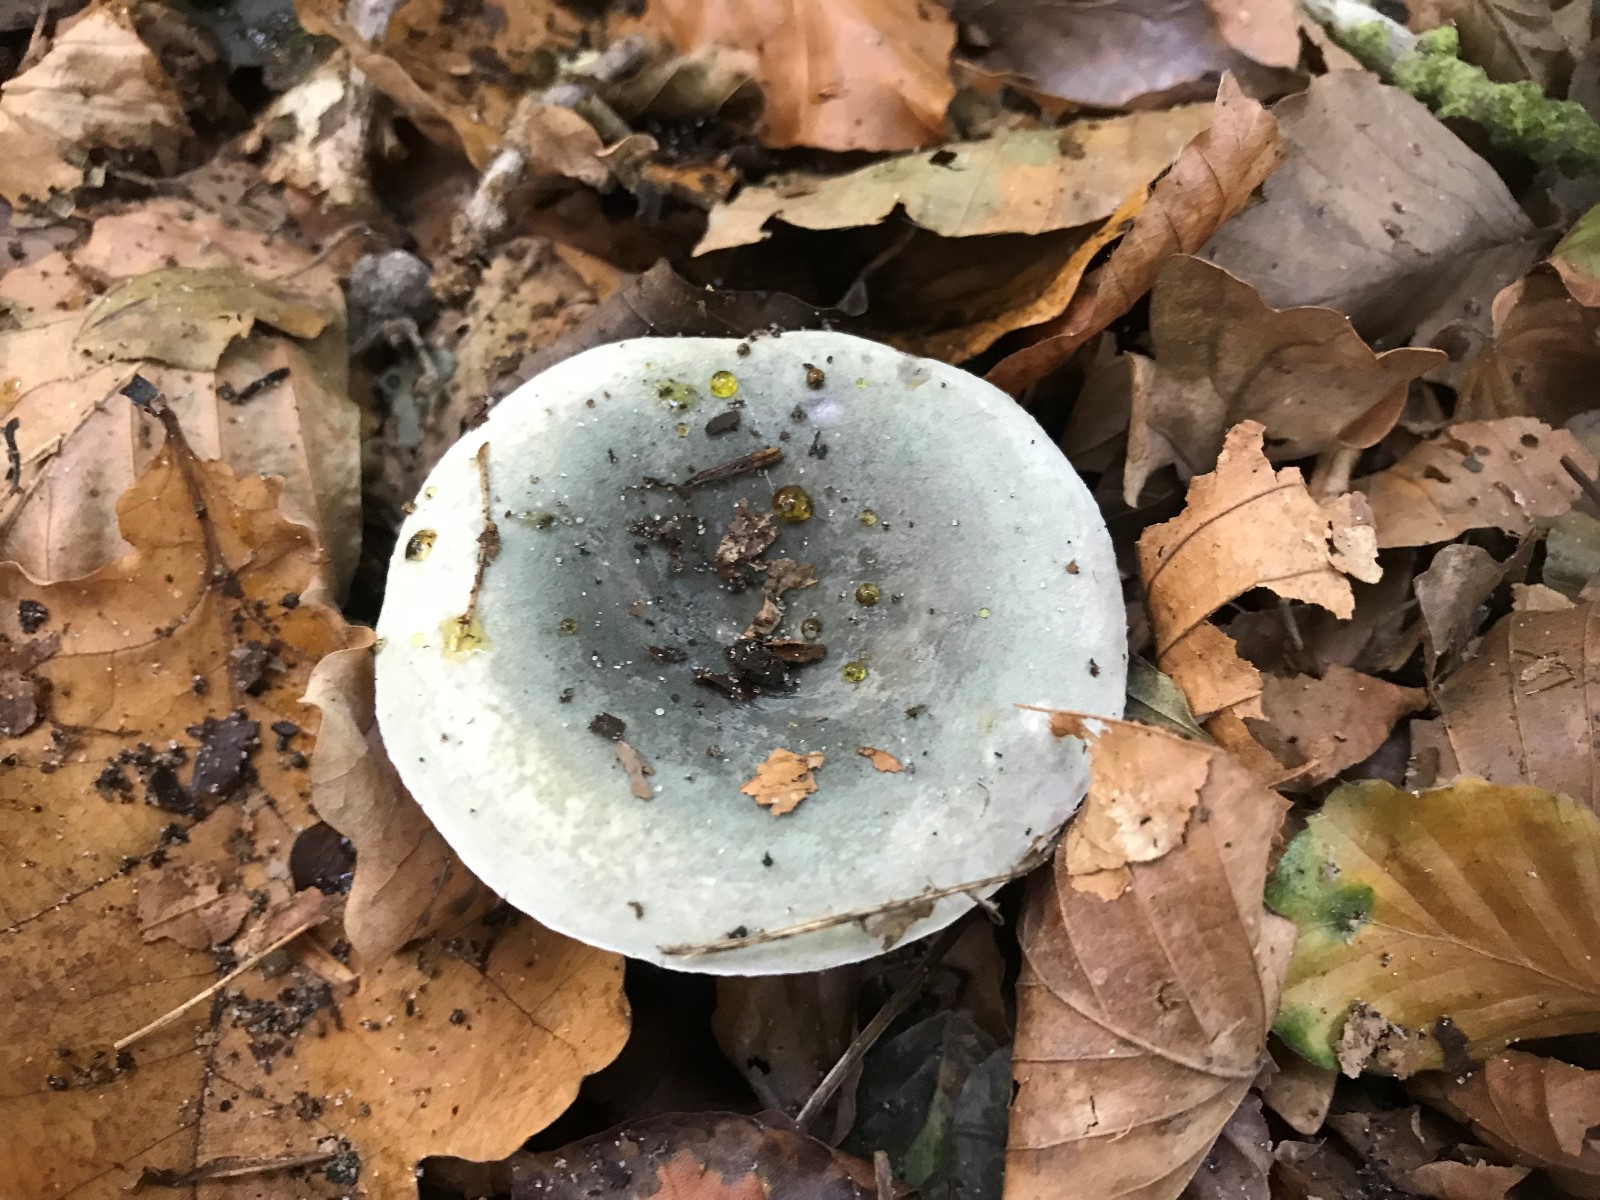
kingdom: Fungi
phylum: Basidiomycota
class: Agaricomycetes
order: Russulales
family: Russulaceae
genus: Russula
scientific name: Russula
